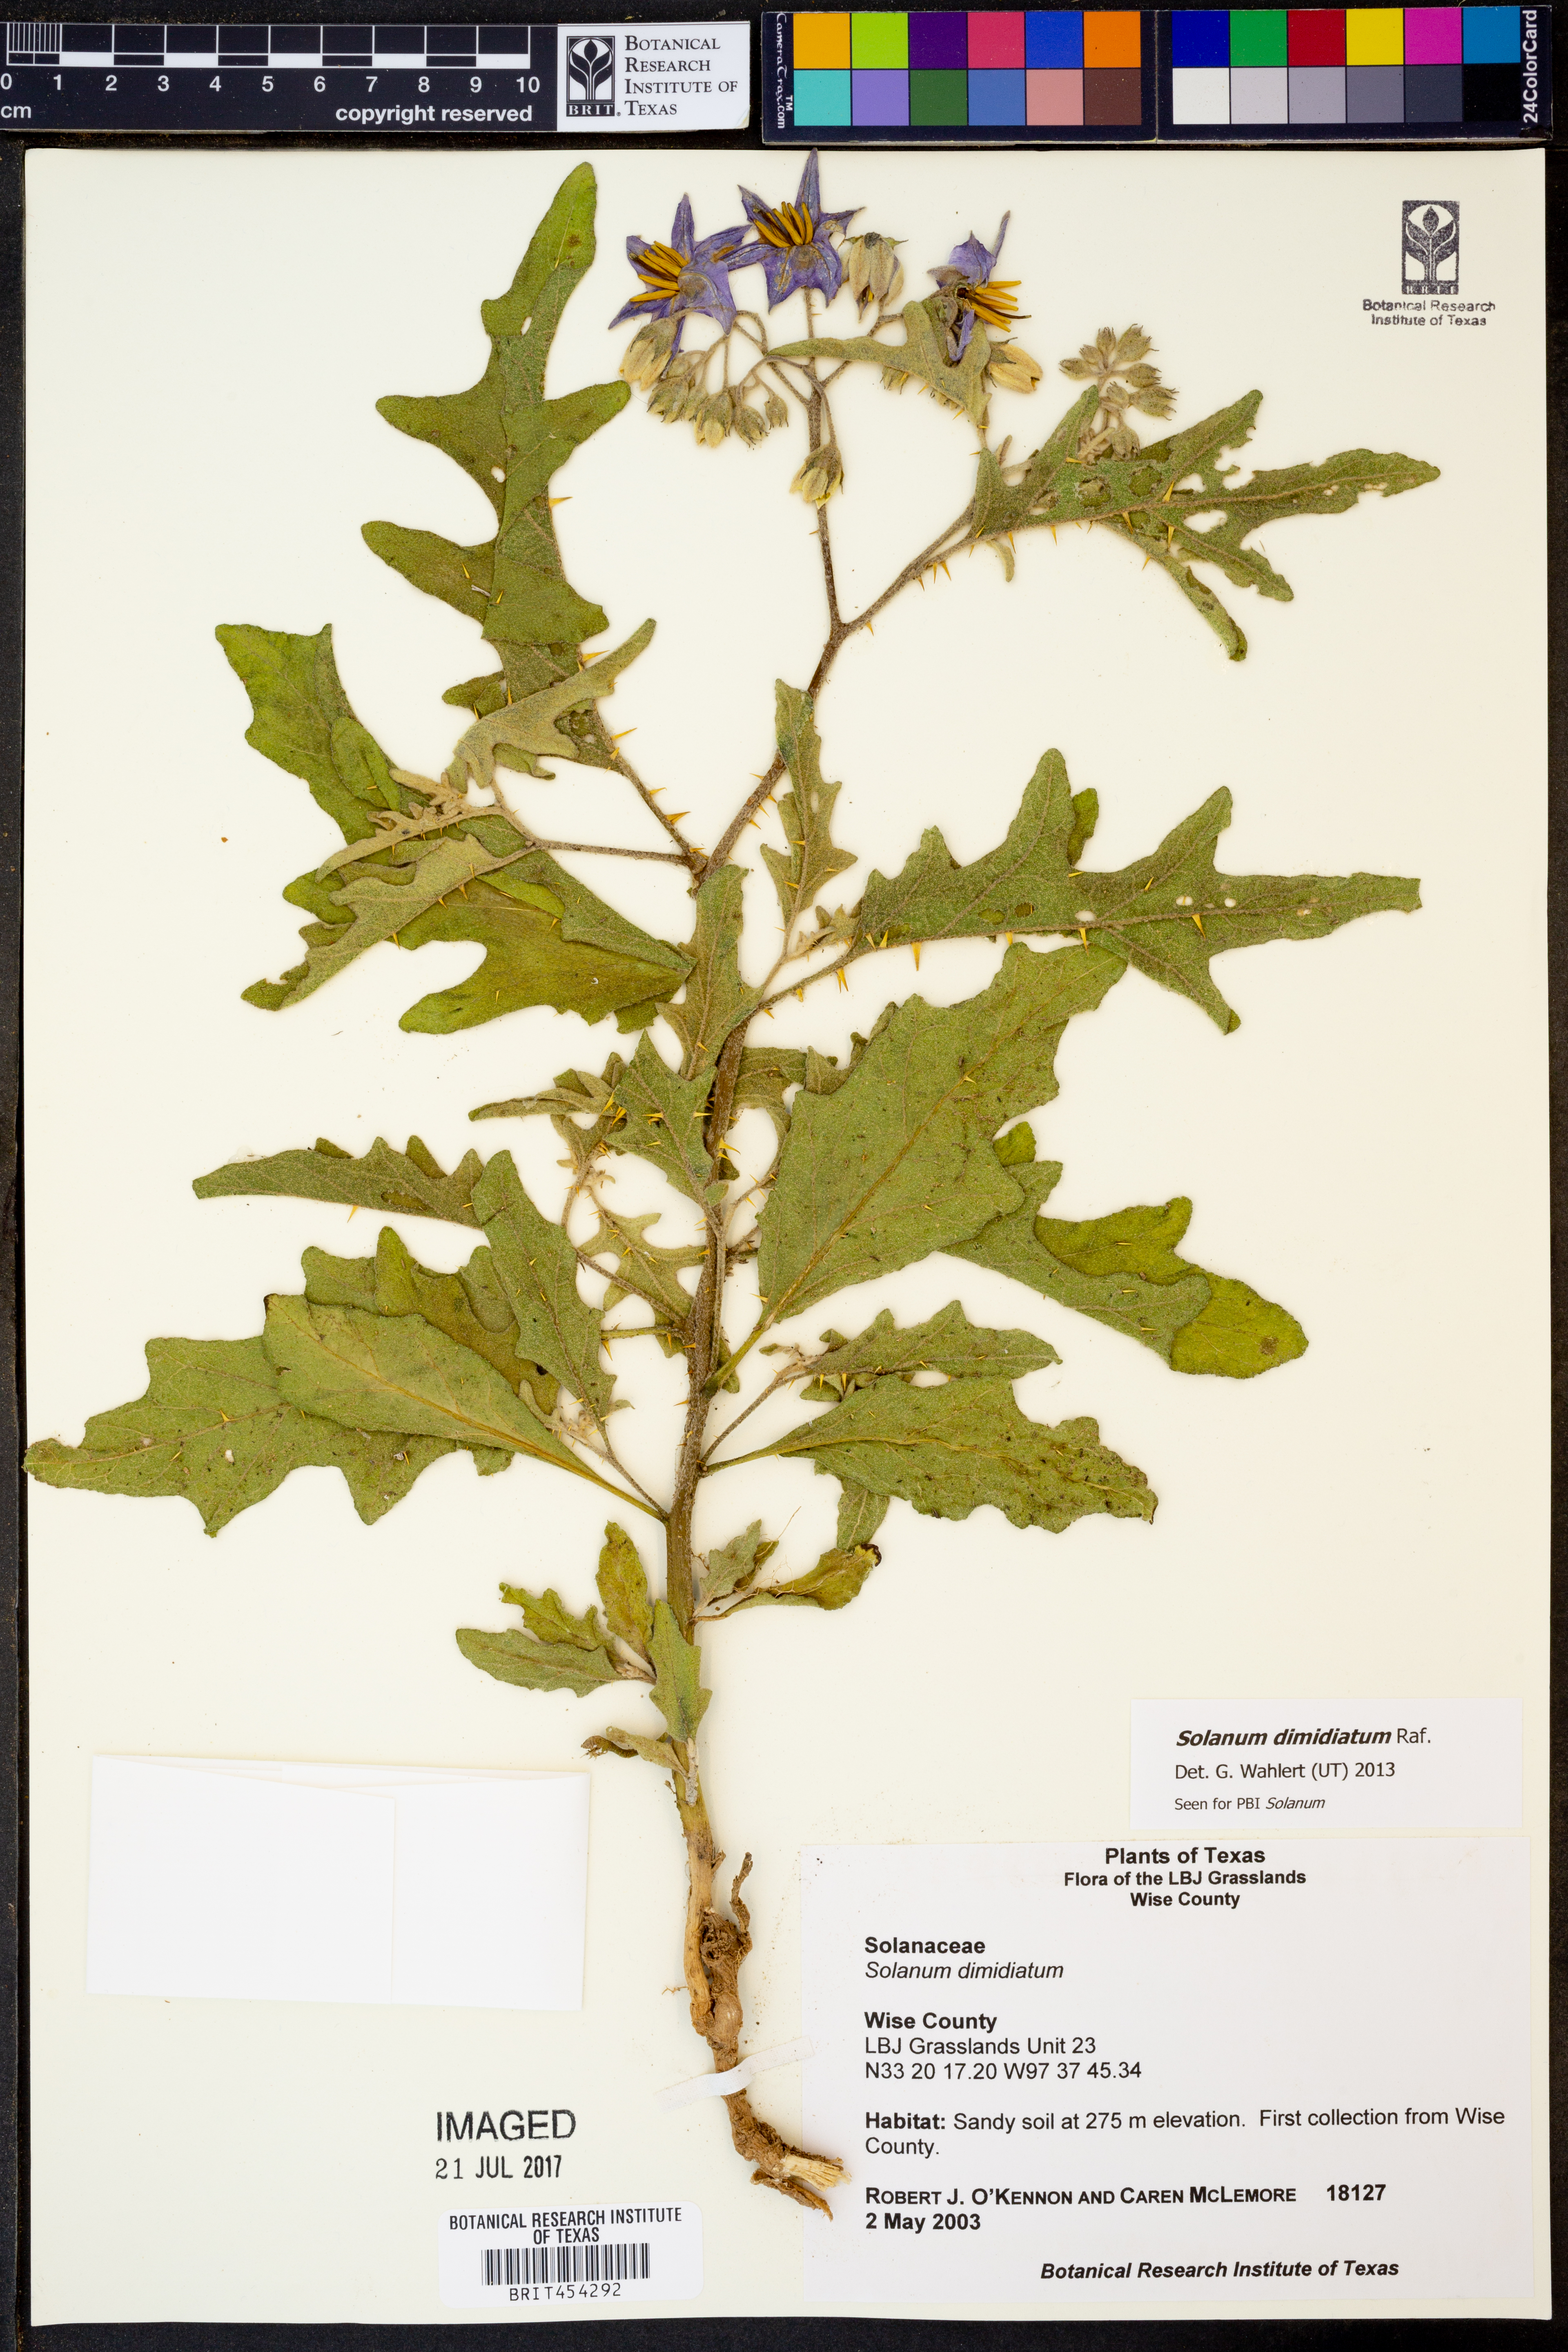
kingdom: Plantae
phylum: Tracheophyta
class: Magnoliopsida
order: Solanales
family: Solanaceae
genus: Solanum
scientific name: Solanum dimidiatum
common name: Carolina horse-nettle
